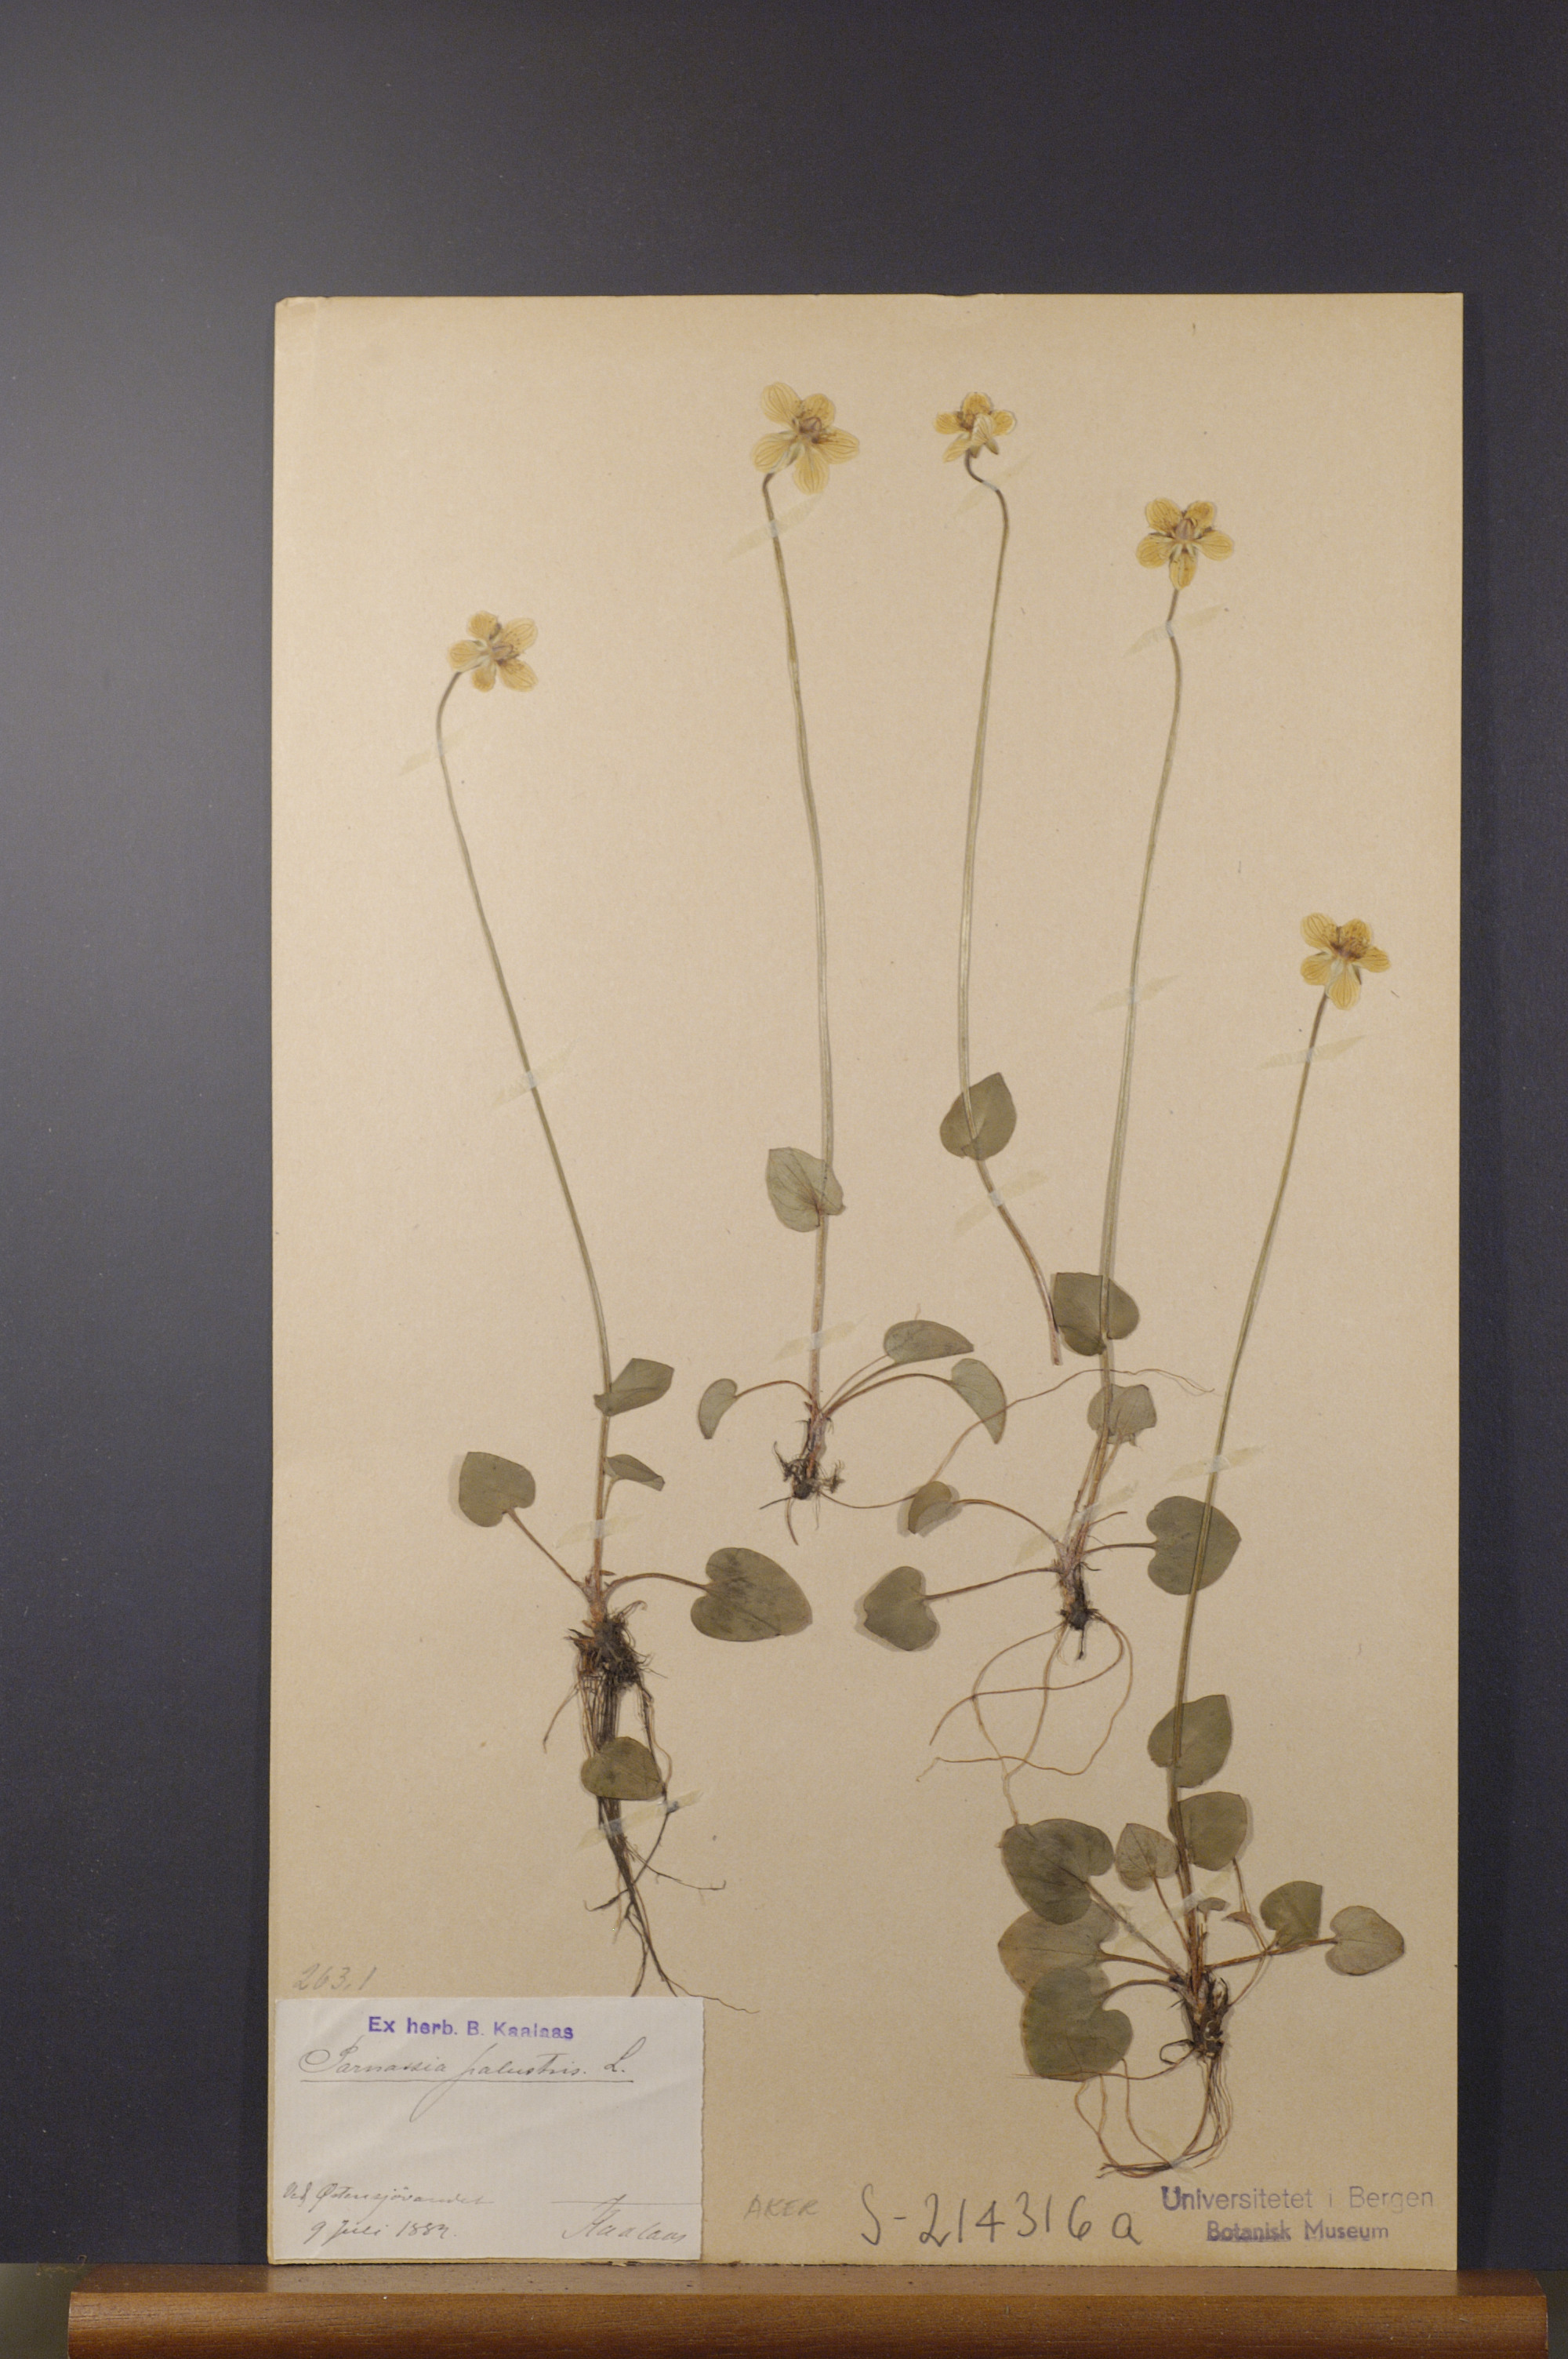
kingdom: Plantae
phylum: Tracheophyta
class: Magnoliopsida
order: Celastrales
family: Parnassiaceae
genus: Parnassia
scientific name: Parnassia palustris
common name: Grass-of-parnassus
